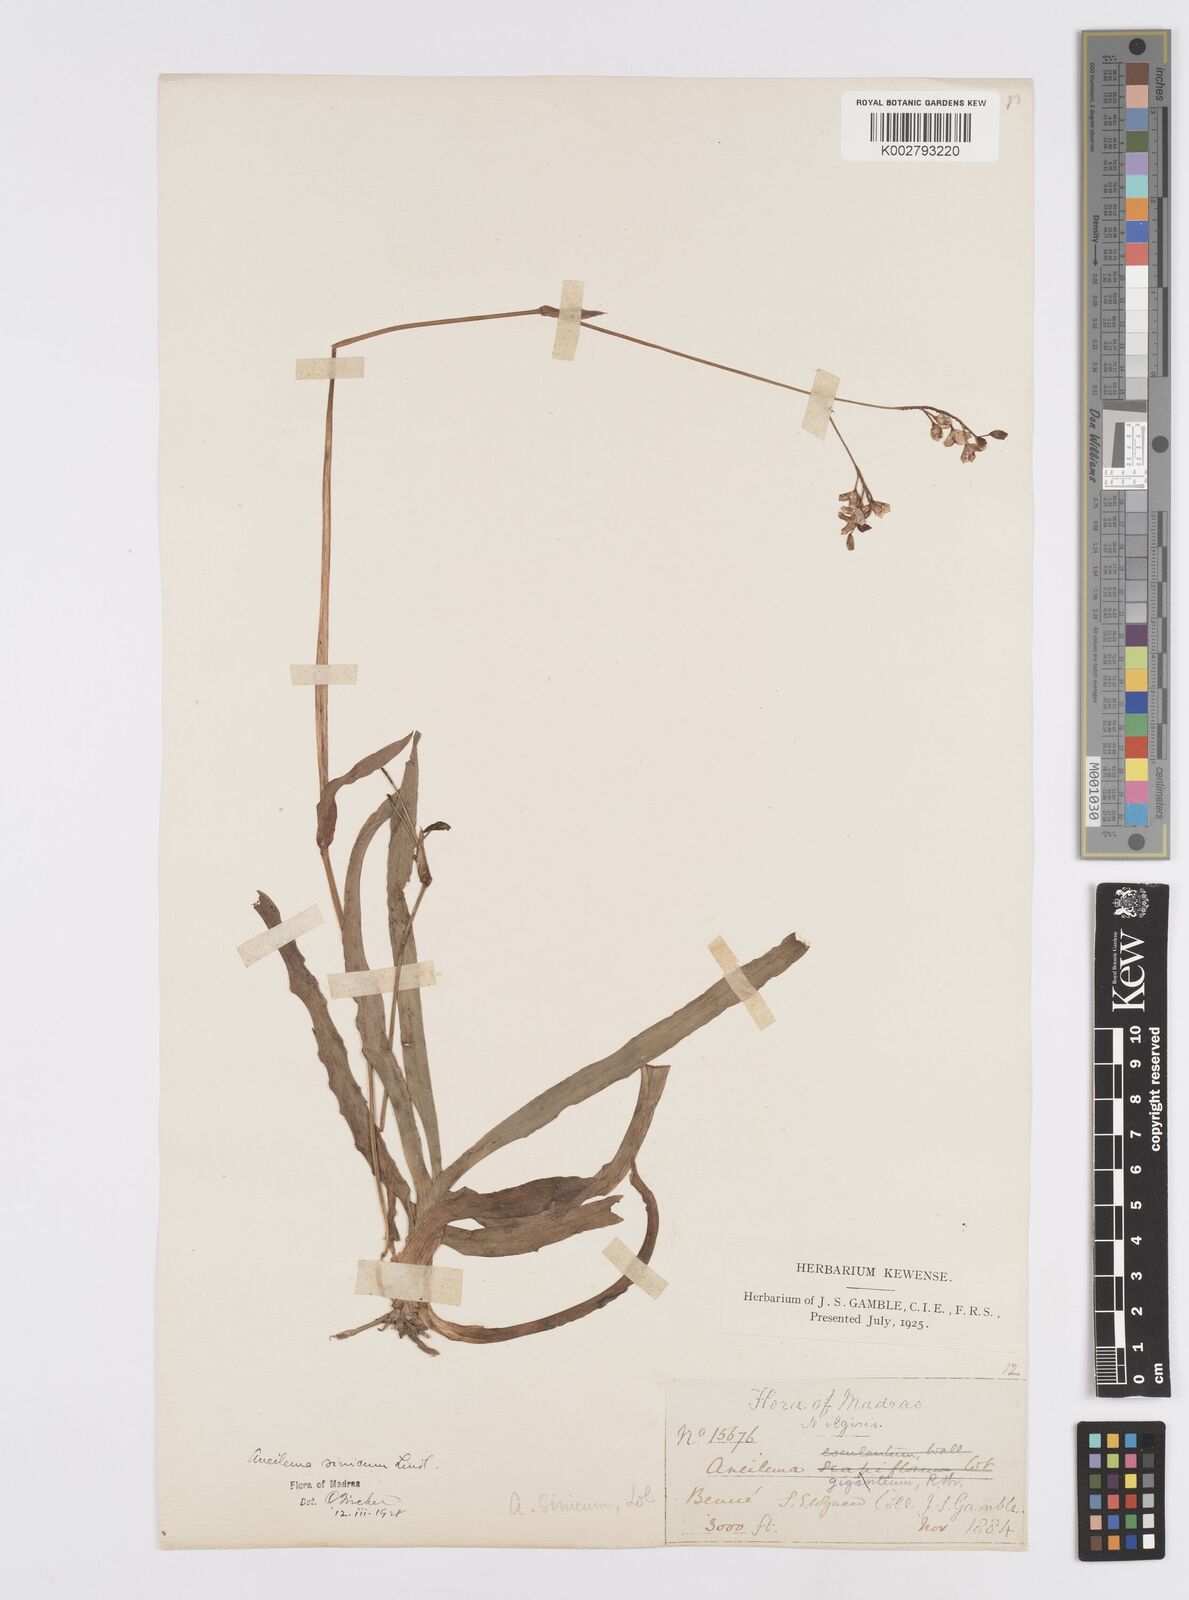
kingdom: Plantae
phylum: Tracheophyta
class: Liliopsida
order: Commelinales
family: Commelinaceae
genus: Murdannia
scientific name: Murdannia simplex
